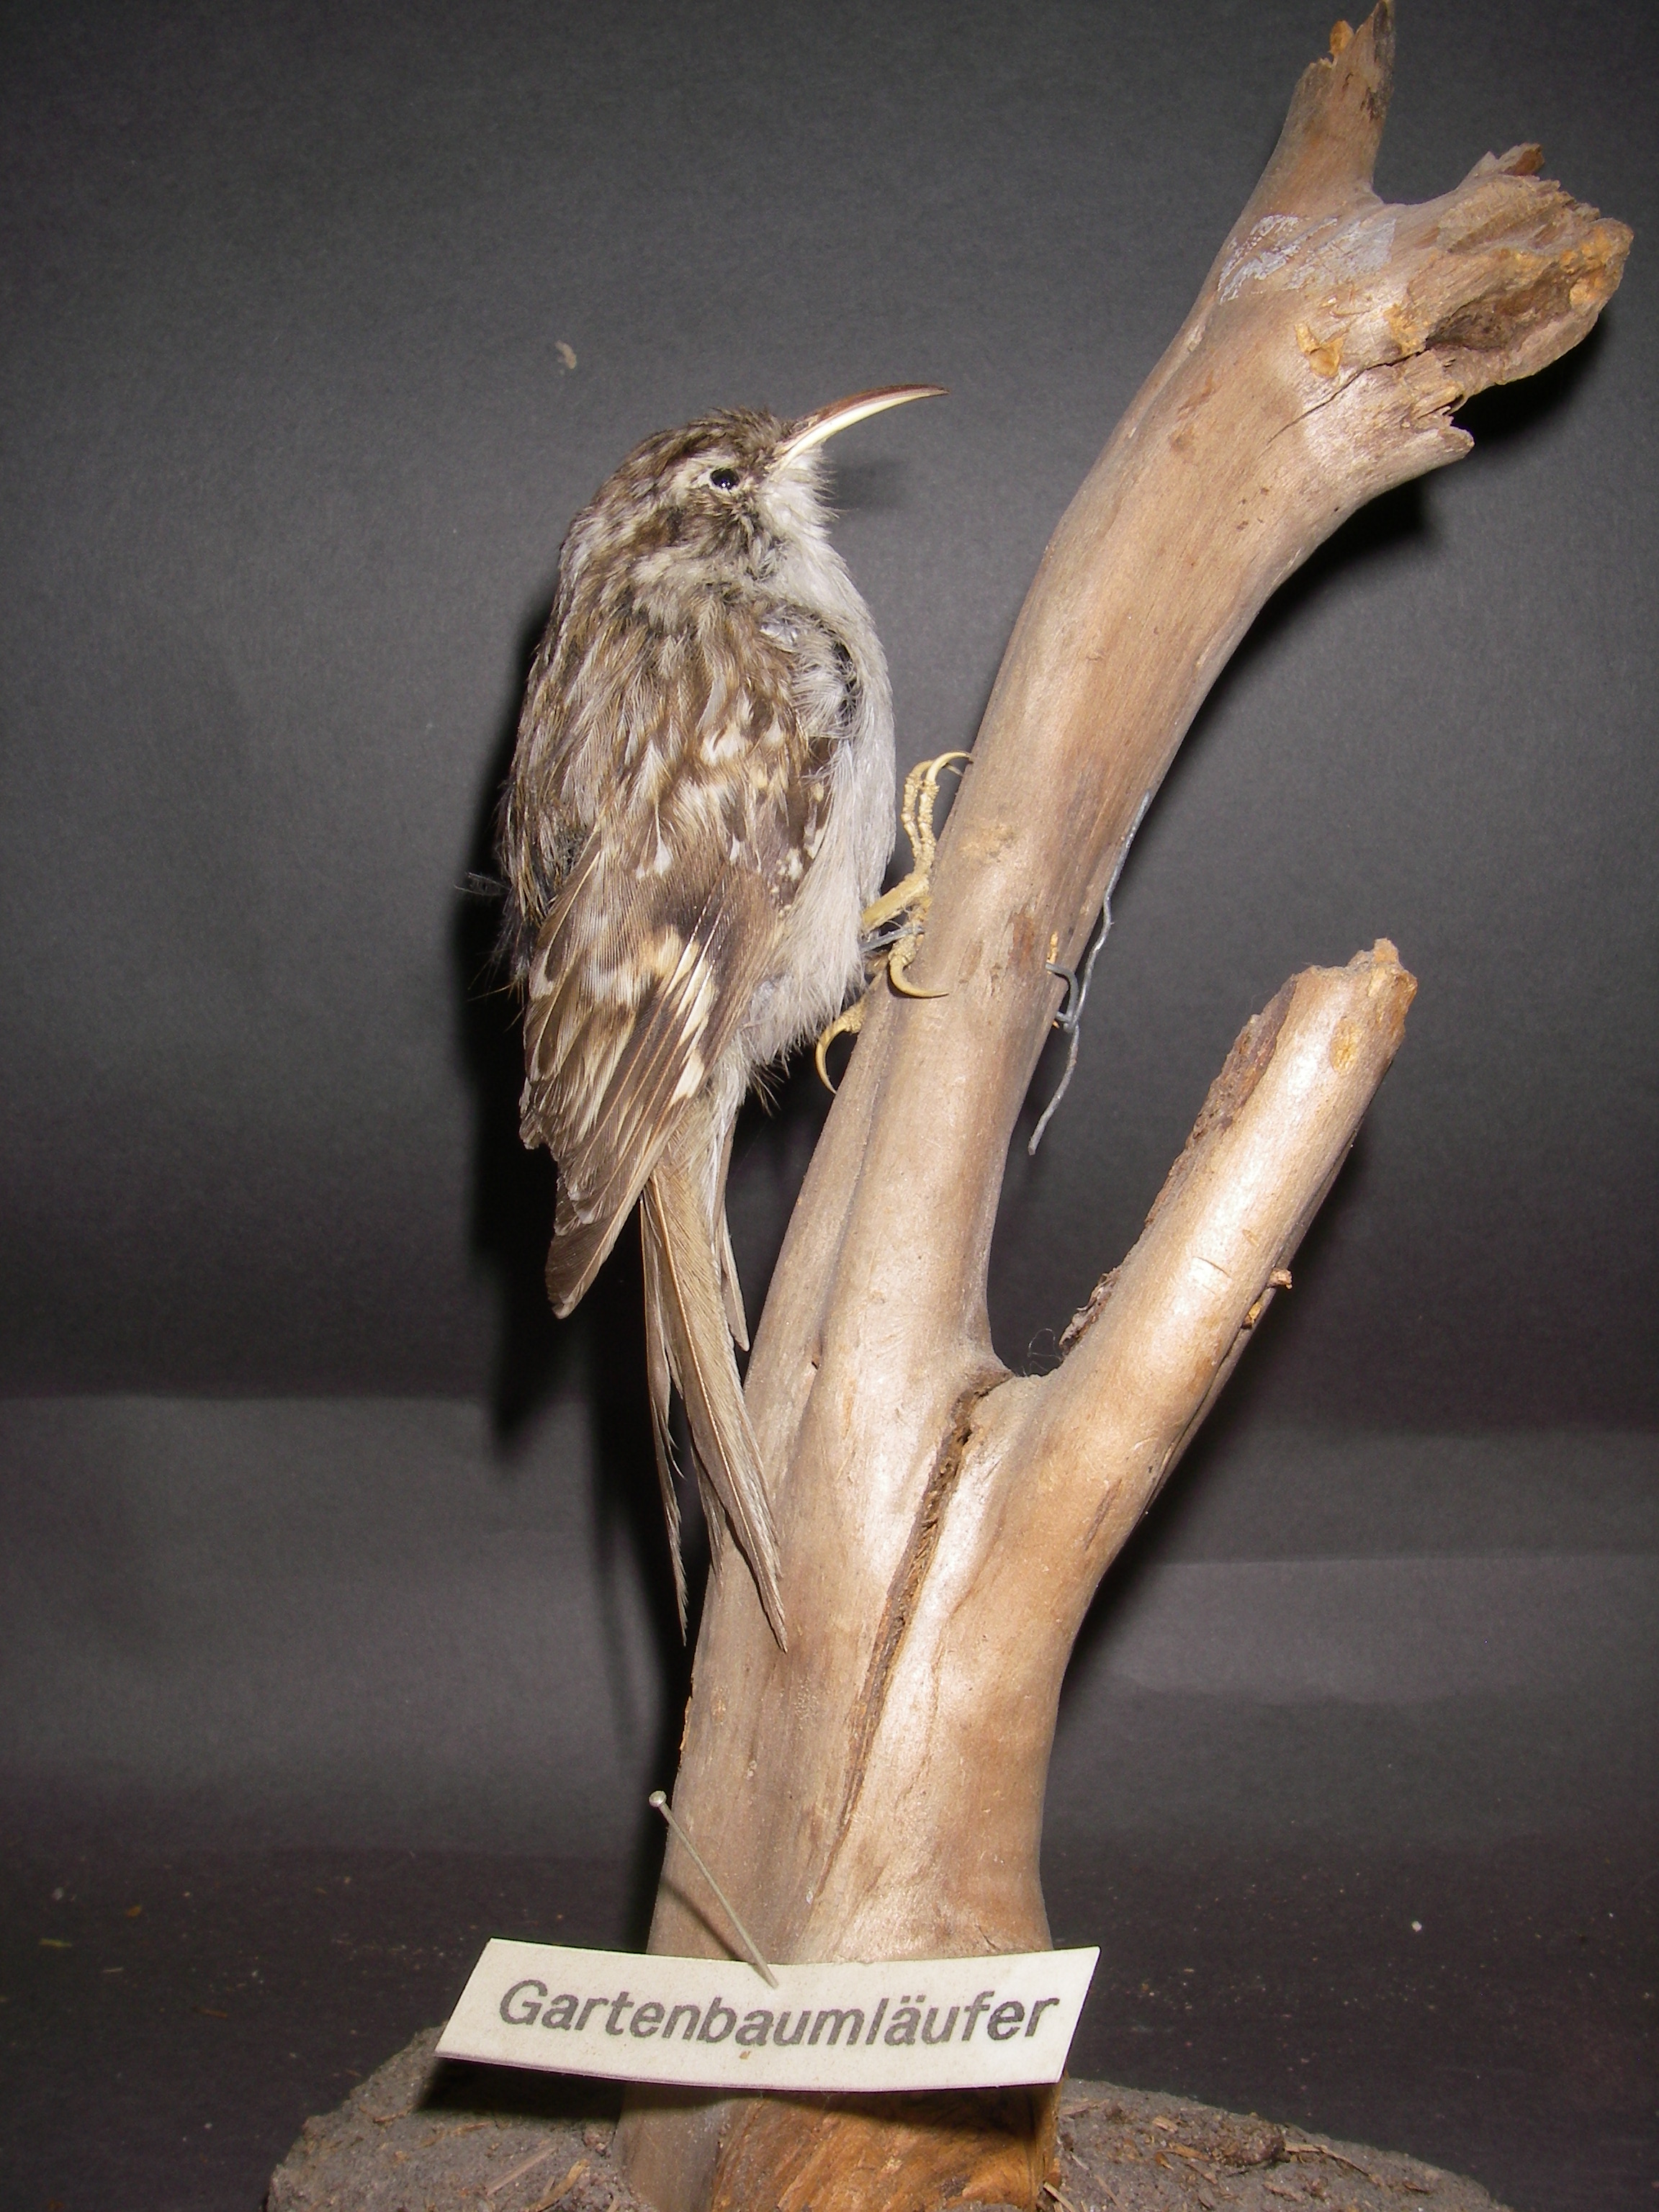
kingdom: Animalia
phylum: Chordata
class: Aves
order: Passeriformes
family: Certhiidae
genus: Certhia
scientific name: Certhia brachydactyla
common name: Short-toed treecreeper
